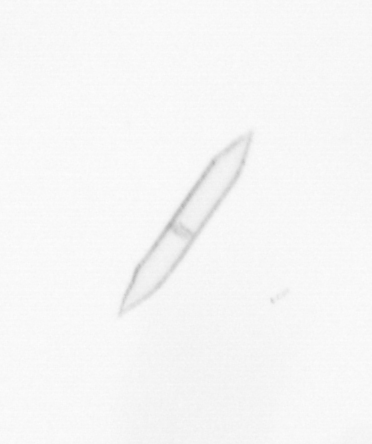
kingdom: Chromista
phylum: Ochrophyta
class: Bacillariophyceae
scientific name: Bacillariophyceae
